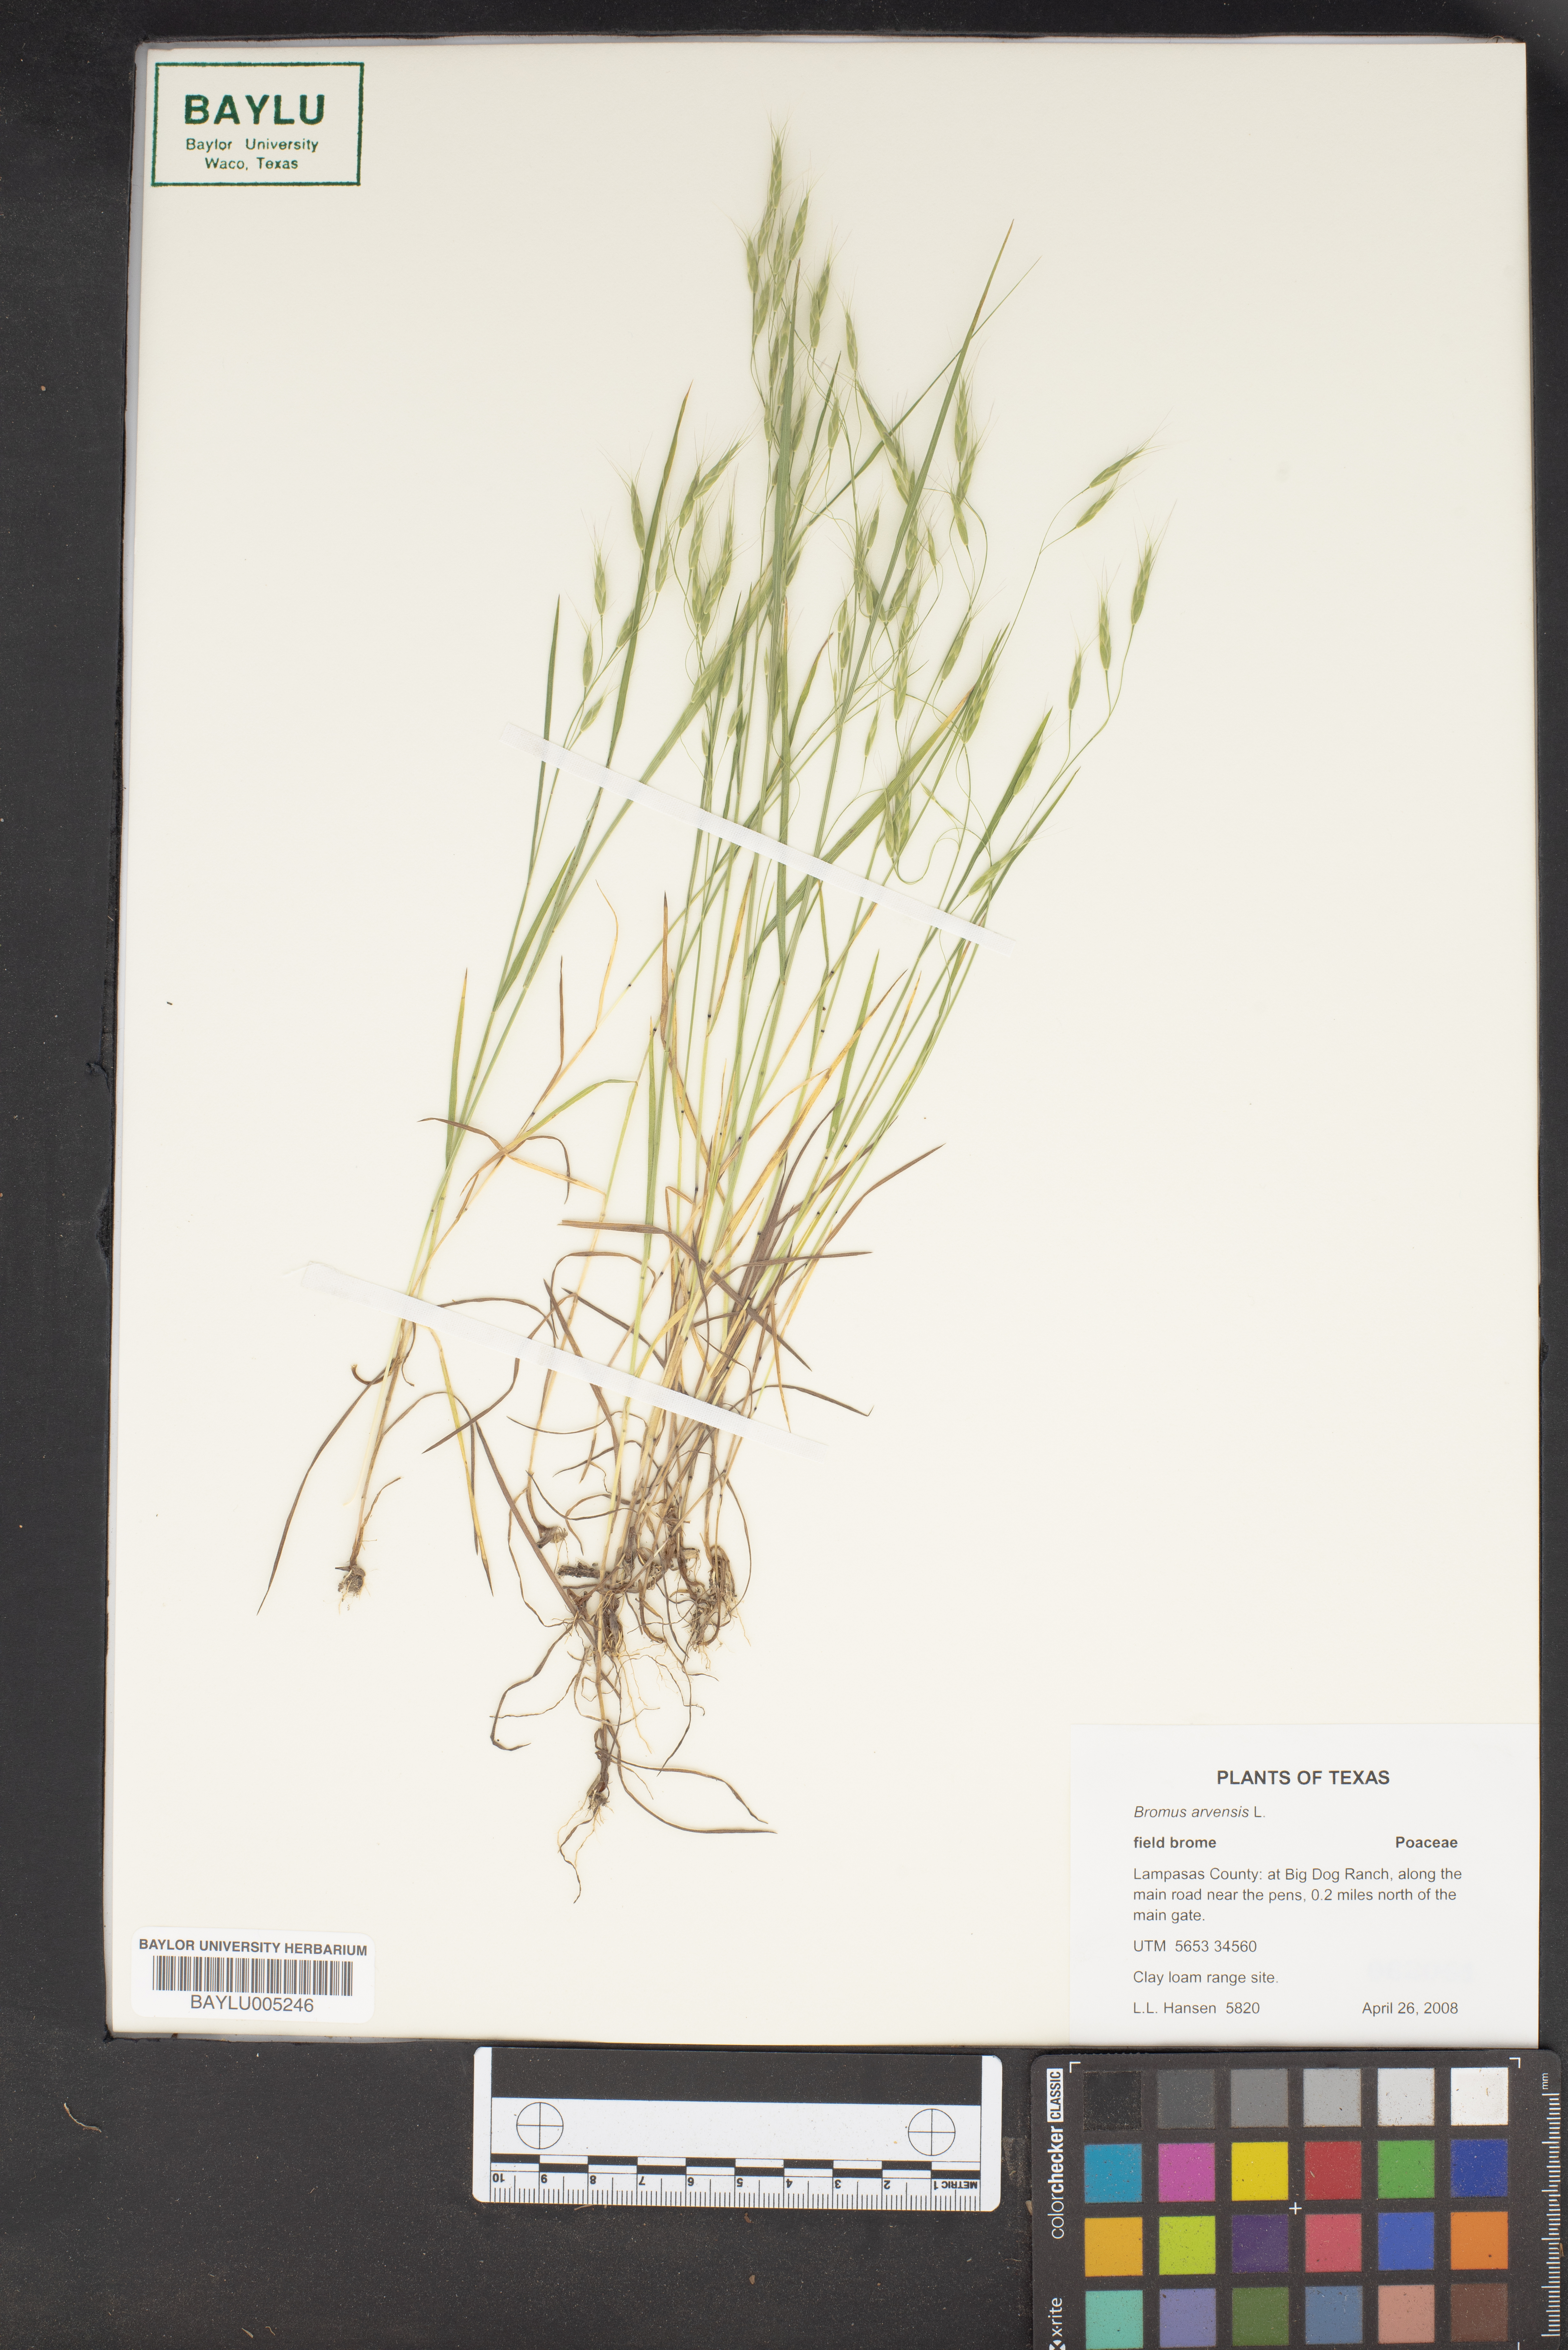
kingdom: Plantae
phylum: Tracheophyta
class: Liliopsida
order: Poales
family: Poaceae
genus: Bromus
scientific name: Bromus arvensis
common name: Field brome
